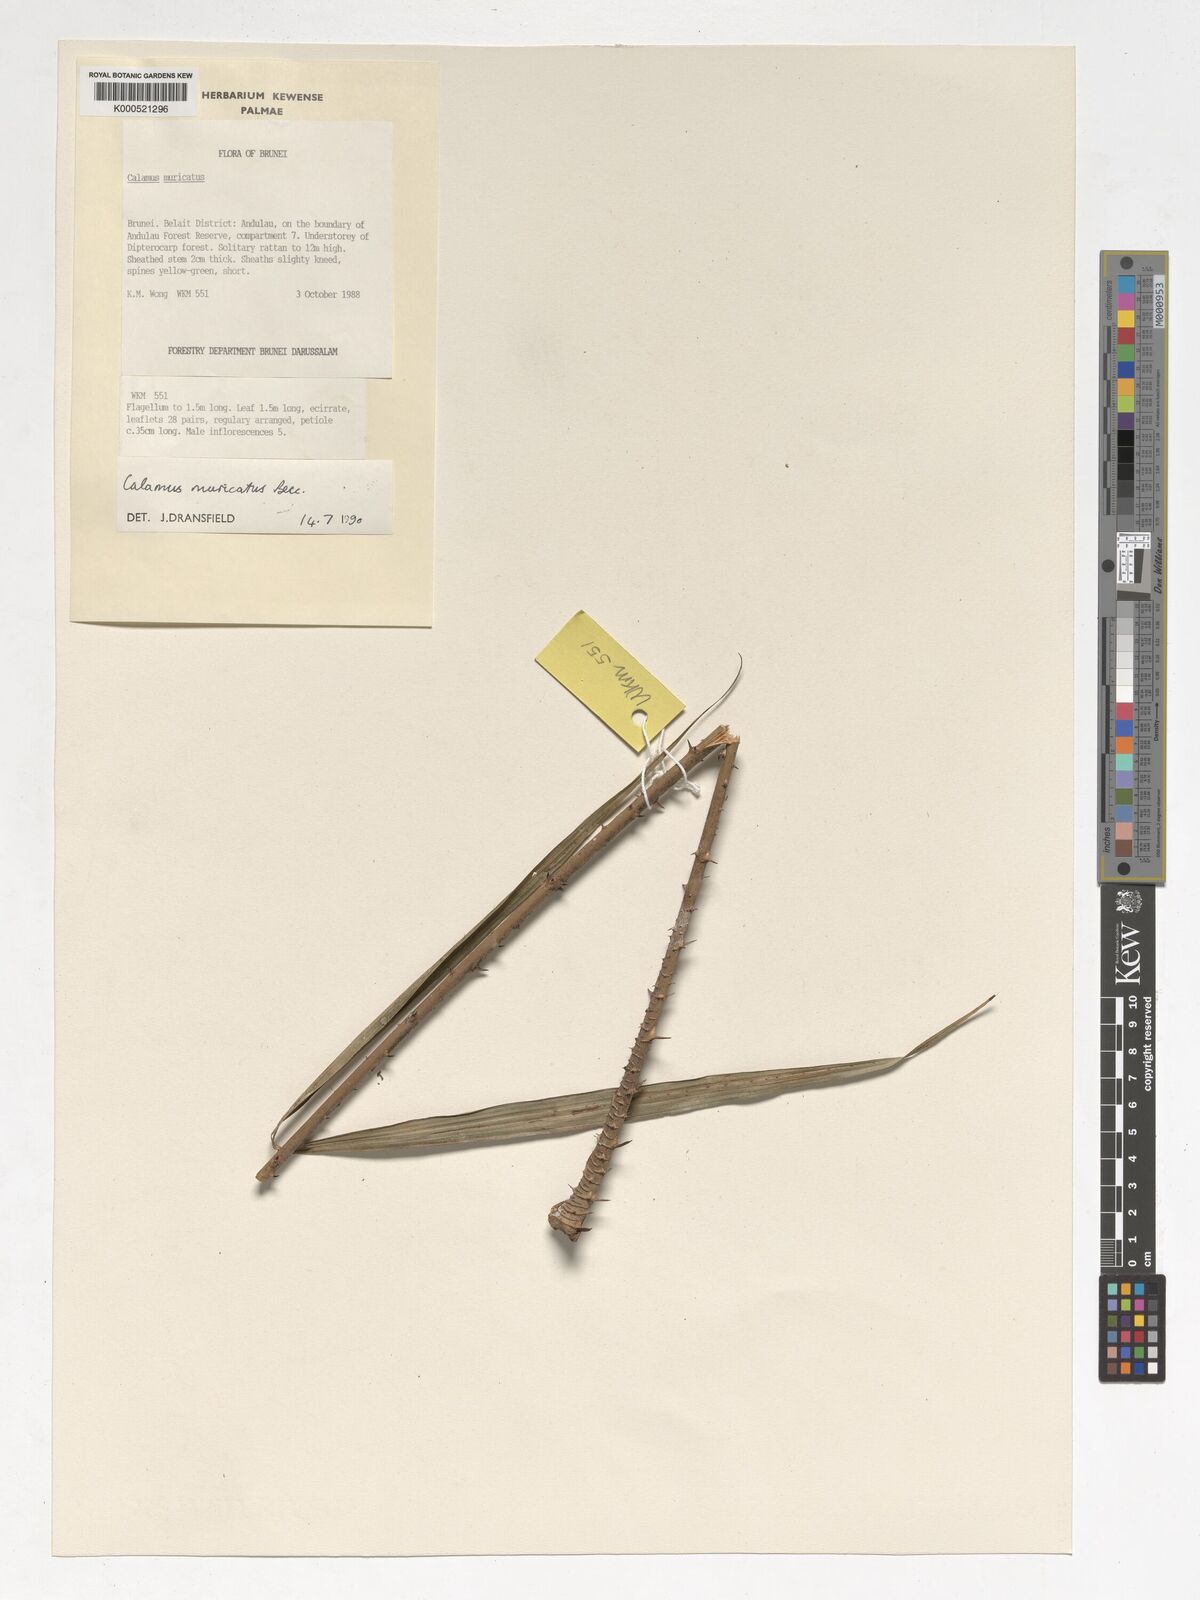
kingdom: Plantae
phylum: Tracheophyta
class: Liliopsida
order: Arecales
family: Arecaceae
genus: Calamus
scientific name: Calamus muricatus
